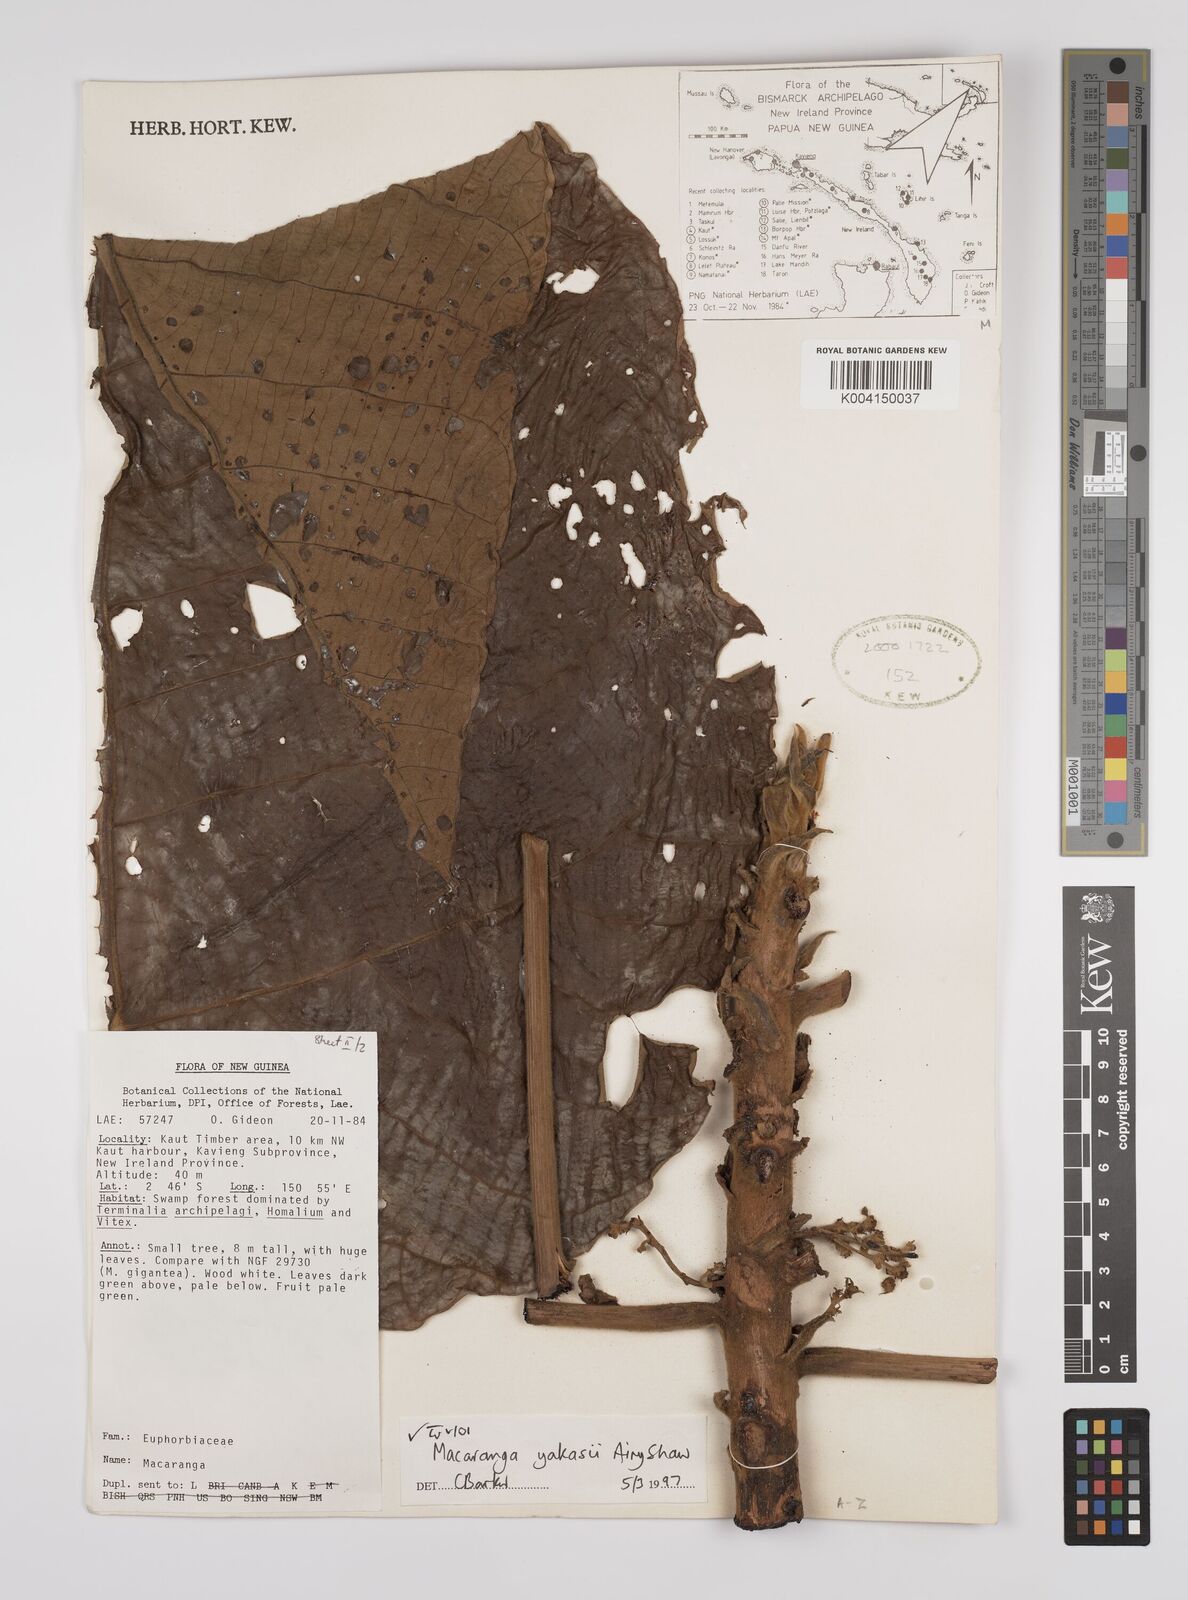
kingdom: Plantae
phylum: Tracheophyta
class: Magnoliopsida
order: Malpighiales
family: Euphorbiaceae
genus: Macaranga
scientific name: Macaranga yakasii
